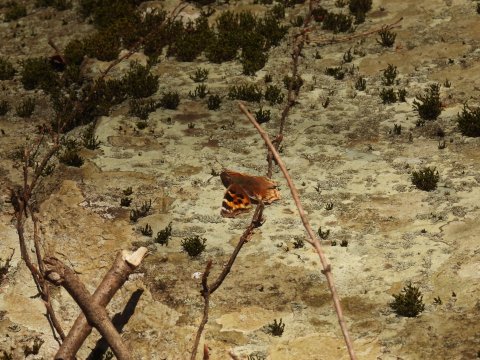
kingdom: Animalia
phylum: Arthropoda
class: Insecta
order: Lepidoptera
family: Nymphalidae
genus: Polygonia
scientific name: Polygonia vaualbum
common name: Compton Tortoiseshell
